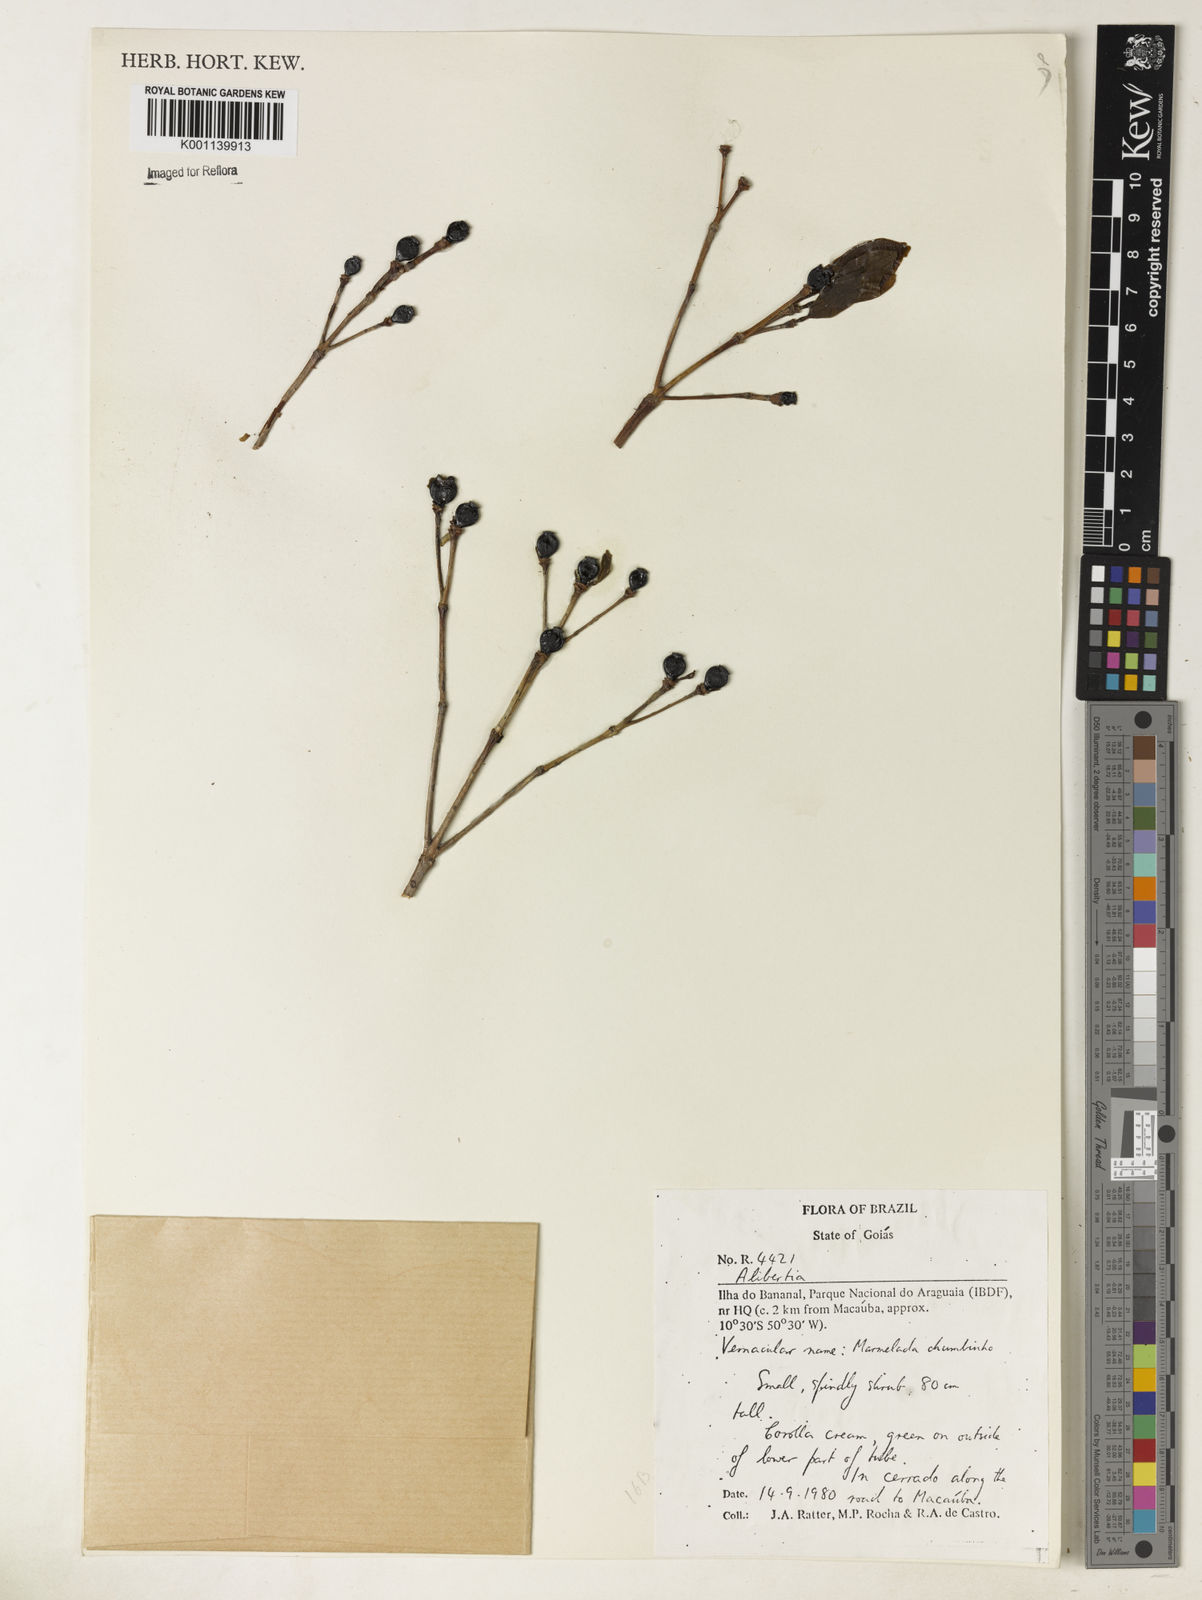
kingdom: Plantae
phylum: Tracheophyta
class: Magnoliopsida
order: Gentianales
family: Rubiaceae
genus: Alibertia
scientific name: Alibertia
